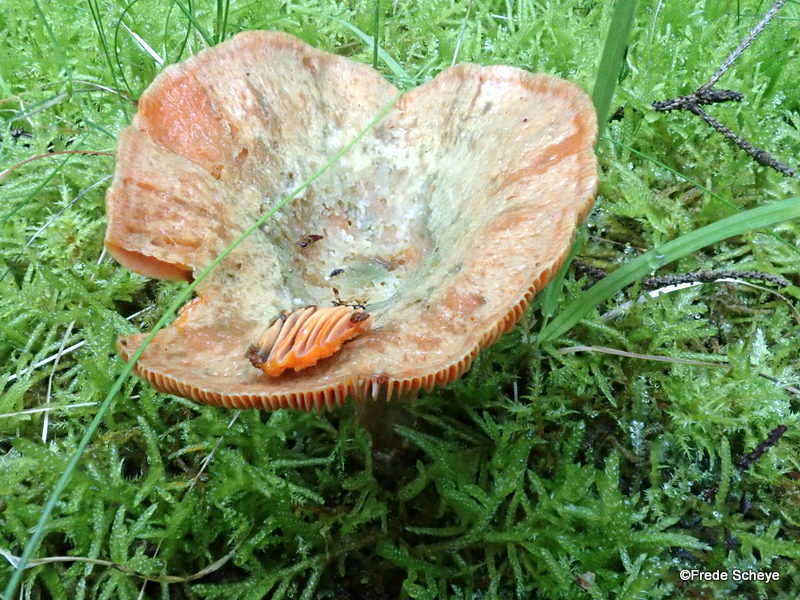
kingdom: Fungi
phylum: Basidiomycota
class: Agaricomycetes
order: Russulales
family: Russulaceae
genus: Lactarius
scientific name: Lactarius deterrimus
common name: gran-mælkehat
